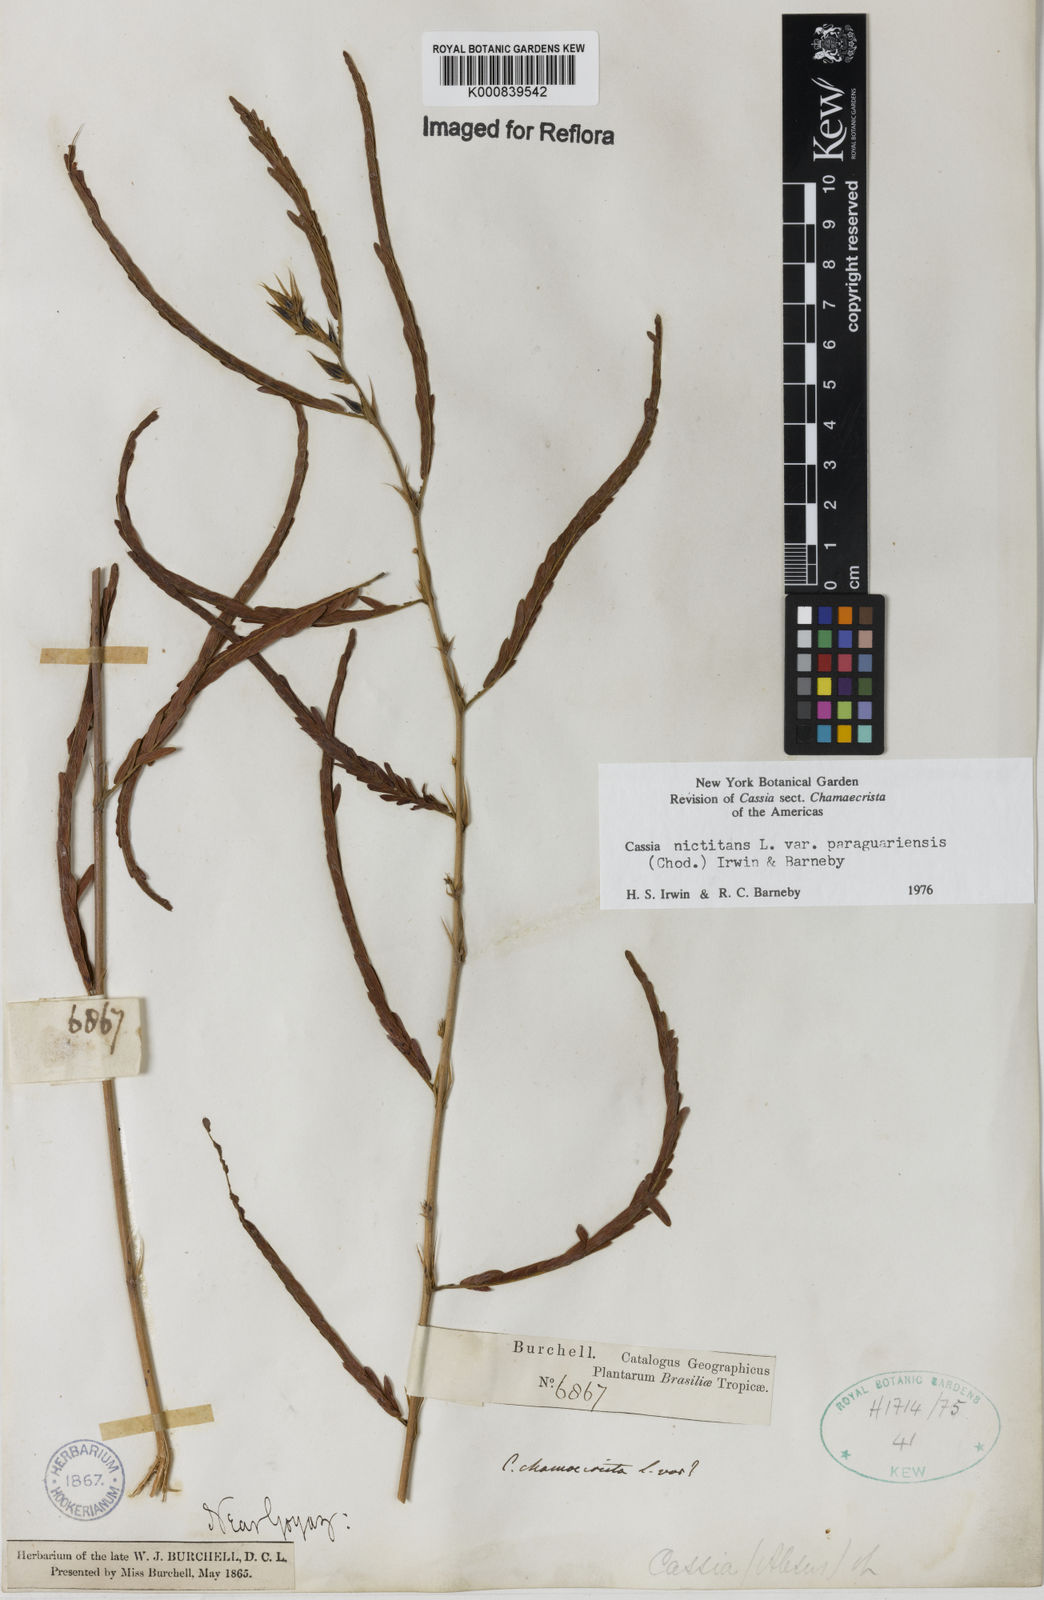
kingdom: Plantae
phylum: Tracheophyta
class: Magnoliopsida
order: Fabales
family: Fabaceae
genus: Chamaecrista
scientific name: Chamaecrista nictitans
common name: Sensitive cassia
